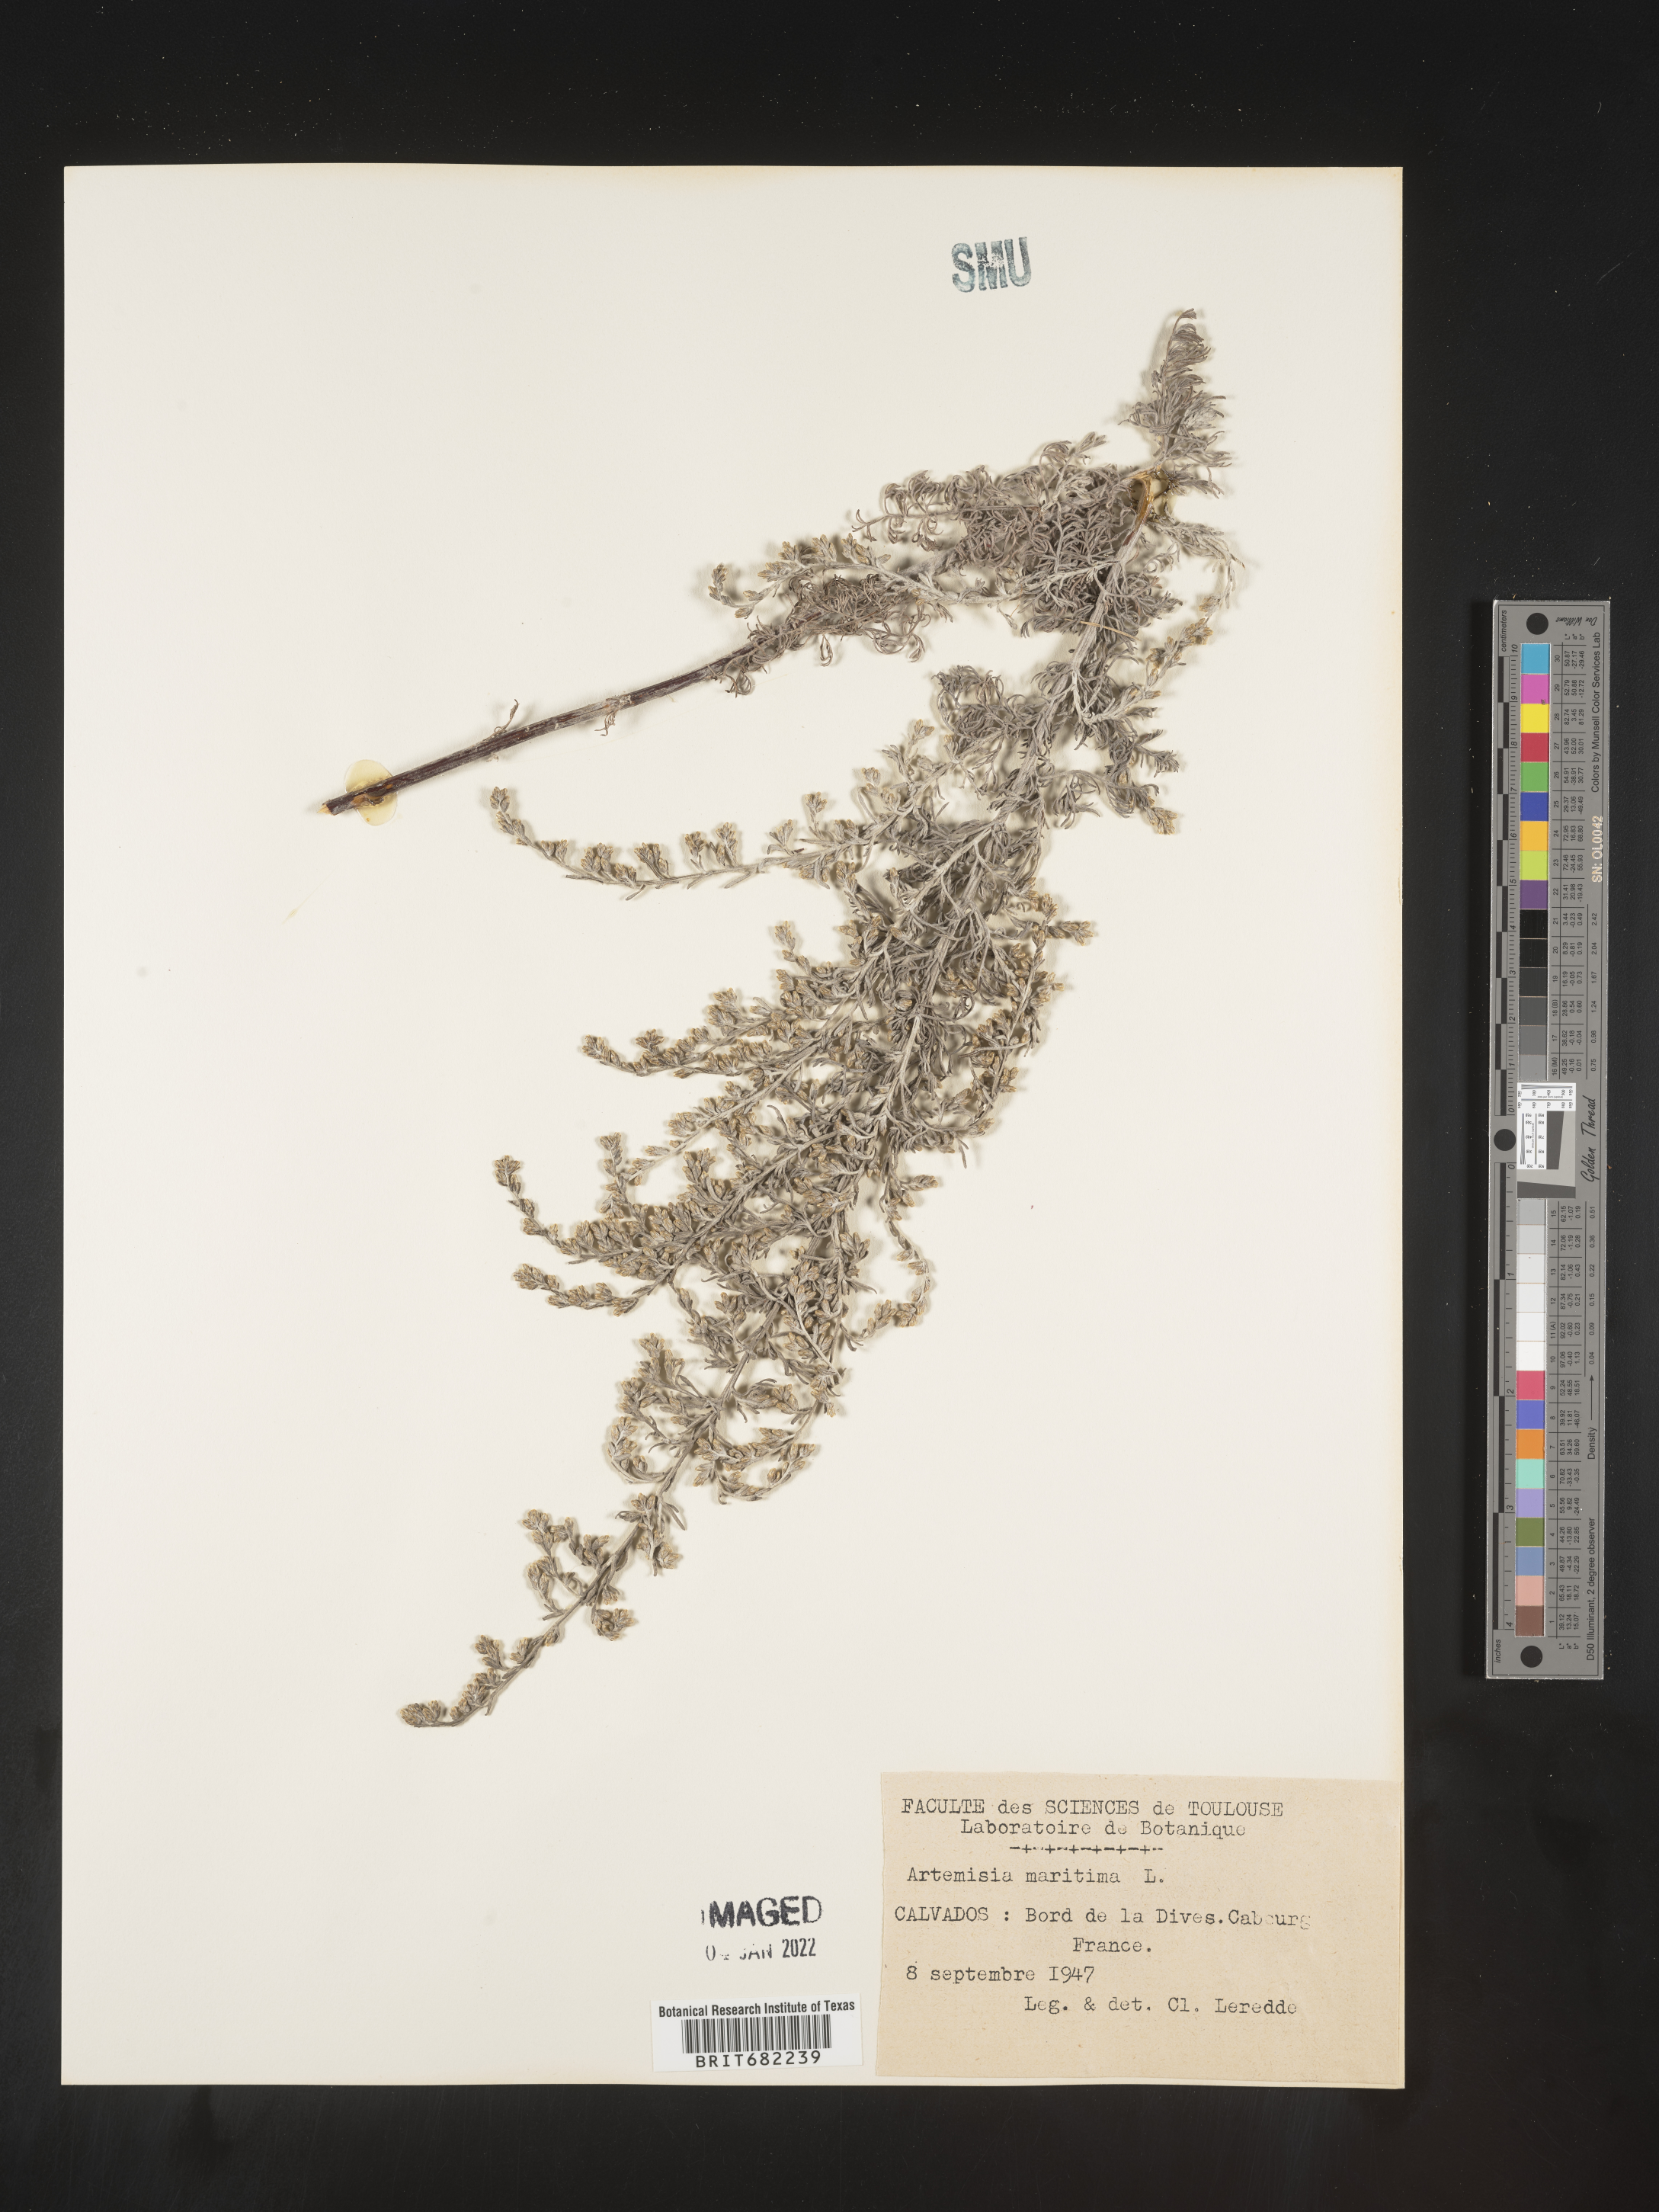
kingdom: Plantae
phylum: Tracheophyta
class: Magnoliopsida
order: Asterales
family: Asteraceae
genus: Artemisia
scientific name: Artemisia
